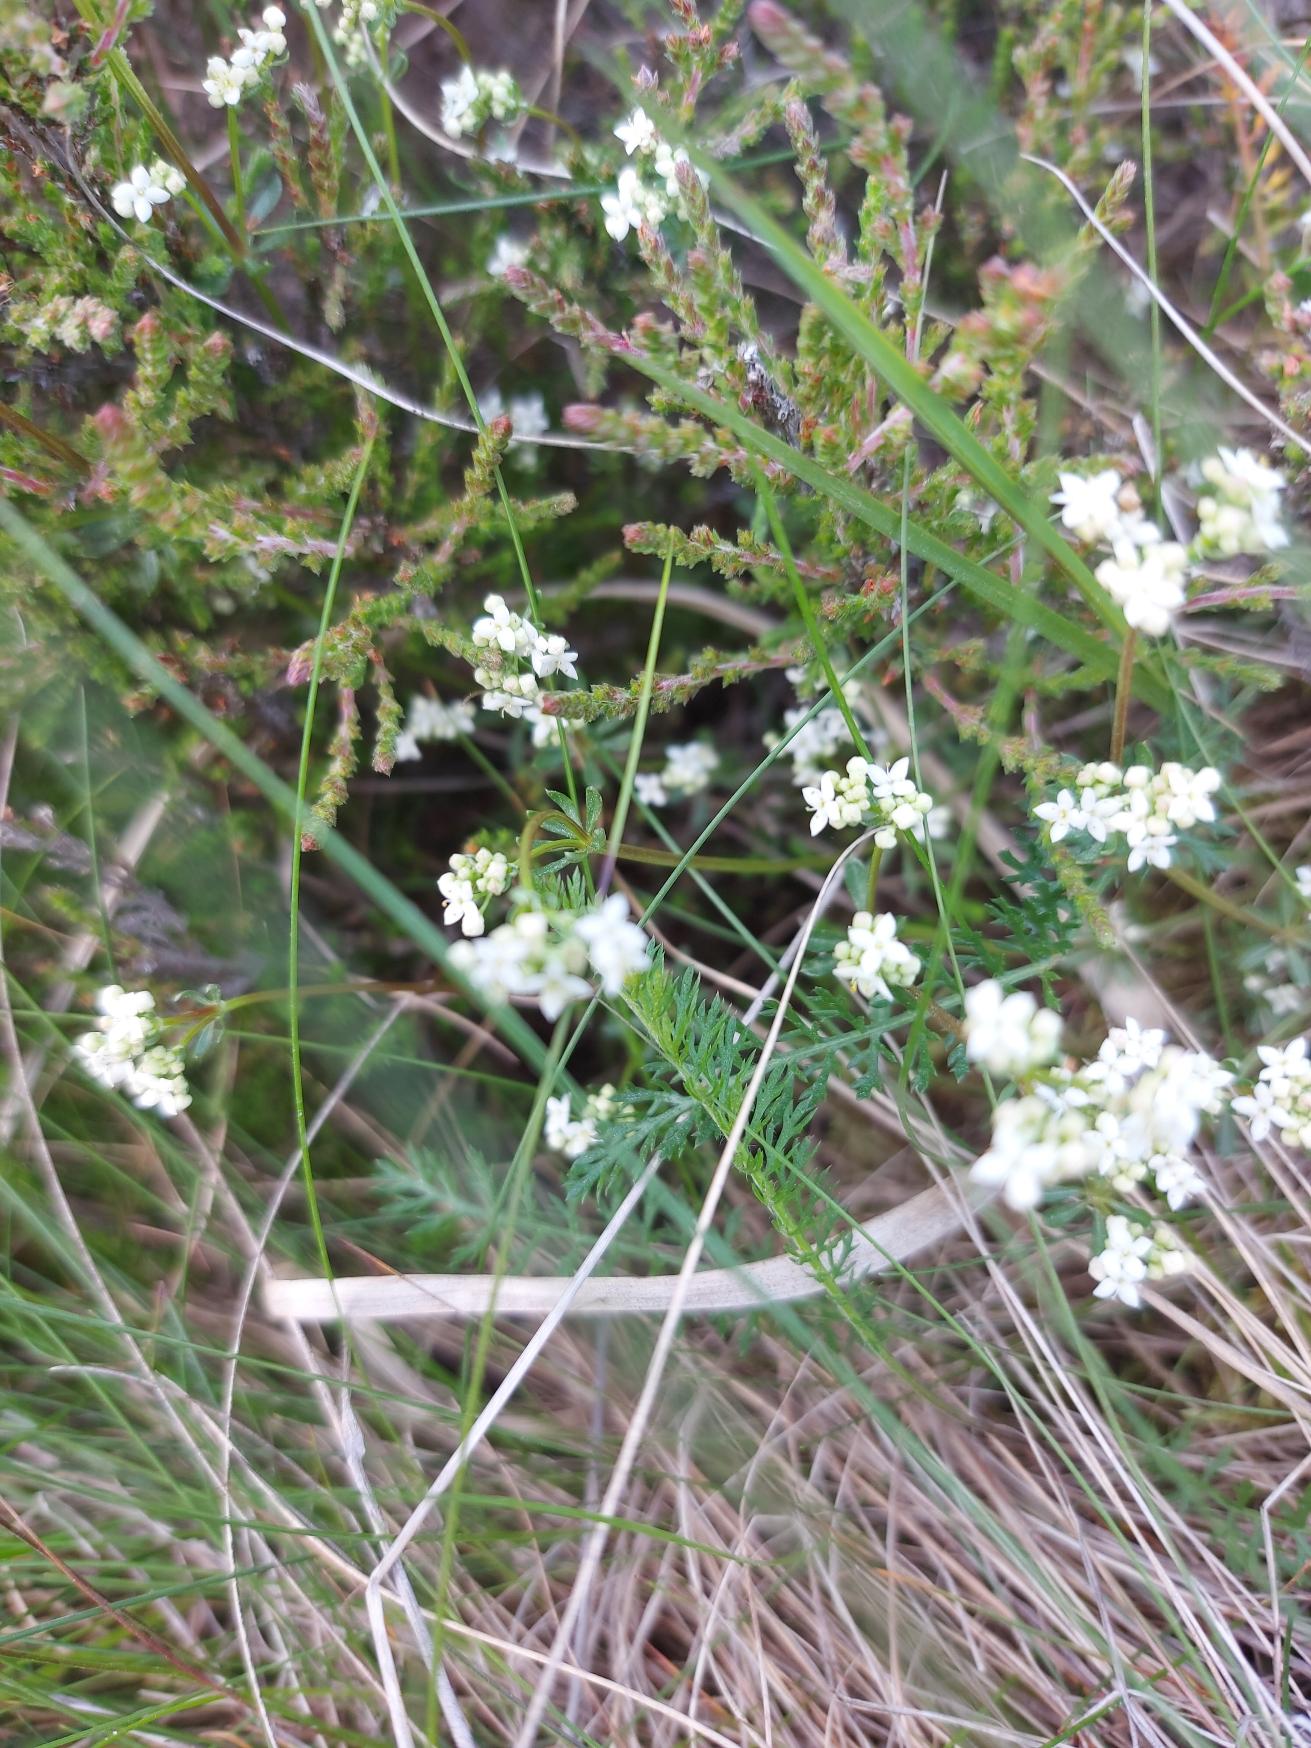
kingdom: Plantae
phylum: Tracheophyta
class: Magnoliopsida
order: Gentianales
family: Rubiaceae
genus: Galium
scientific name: Galium saxatile
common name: Lyng-snerre
